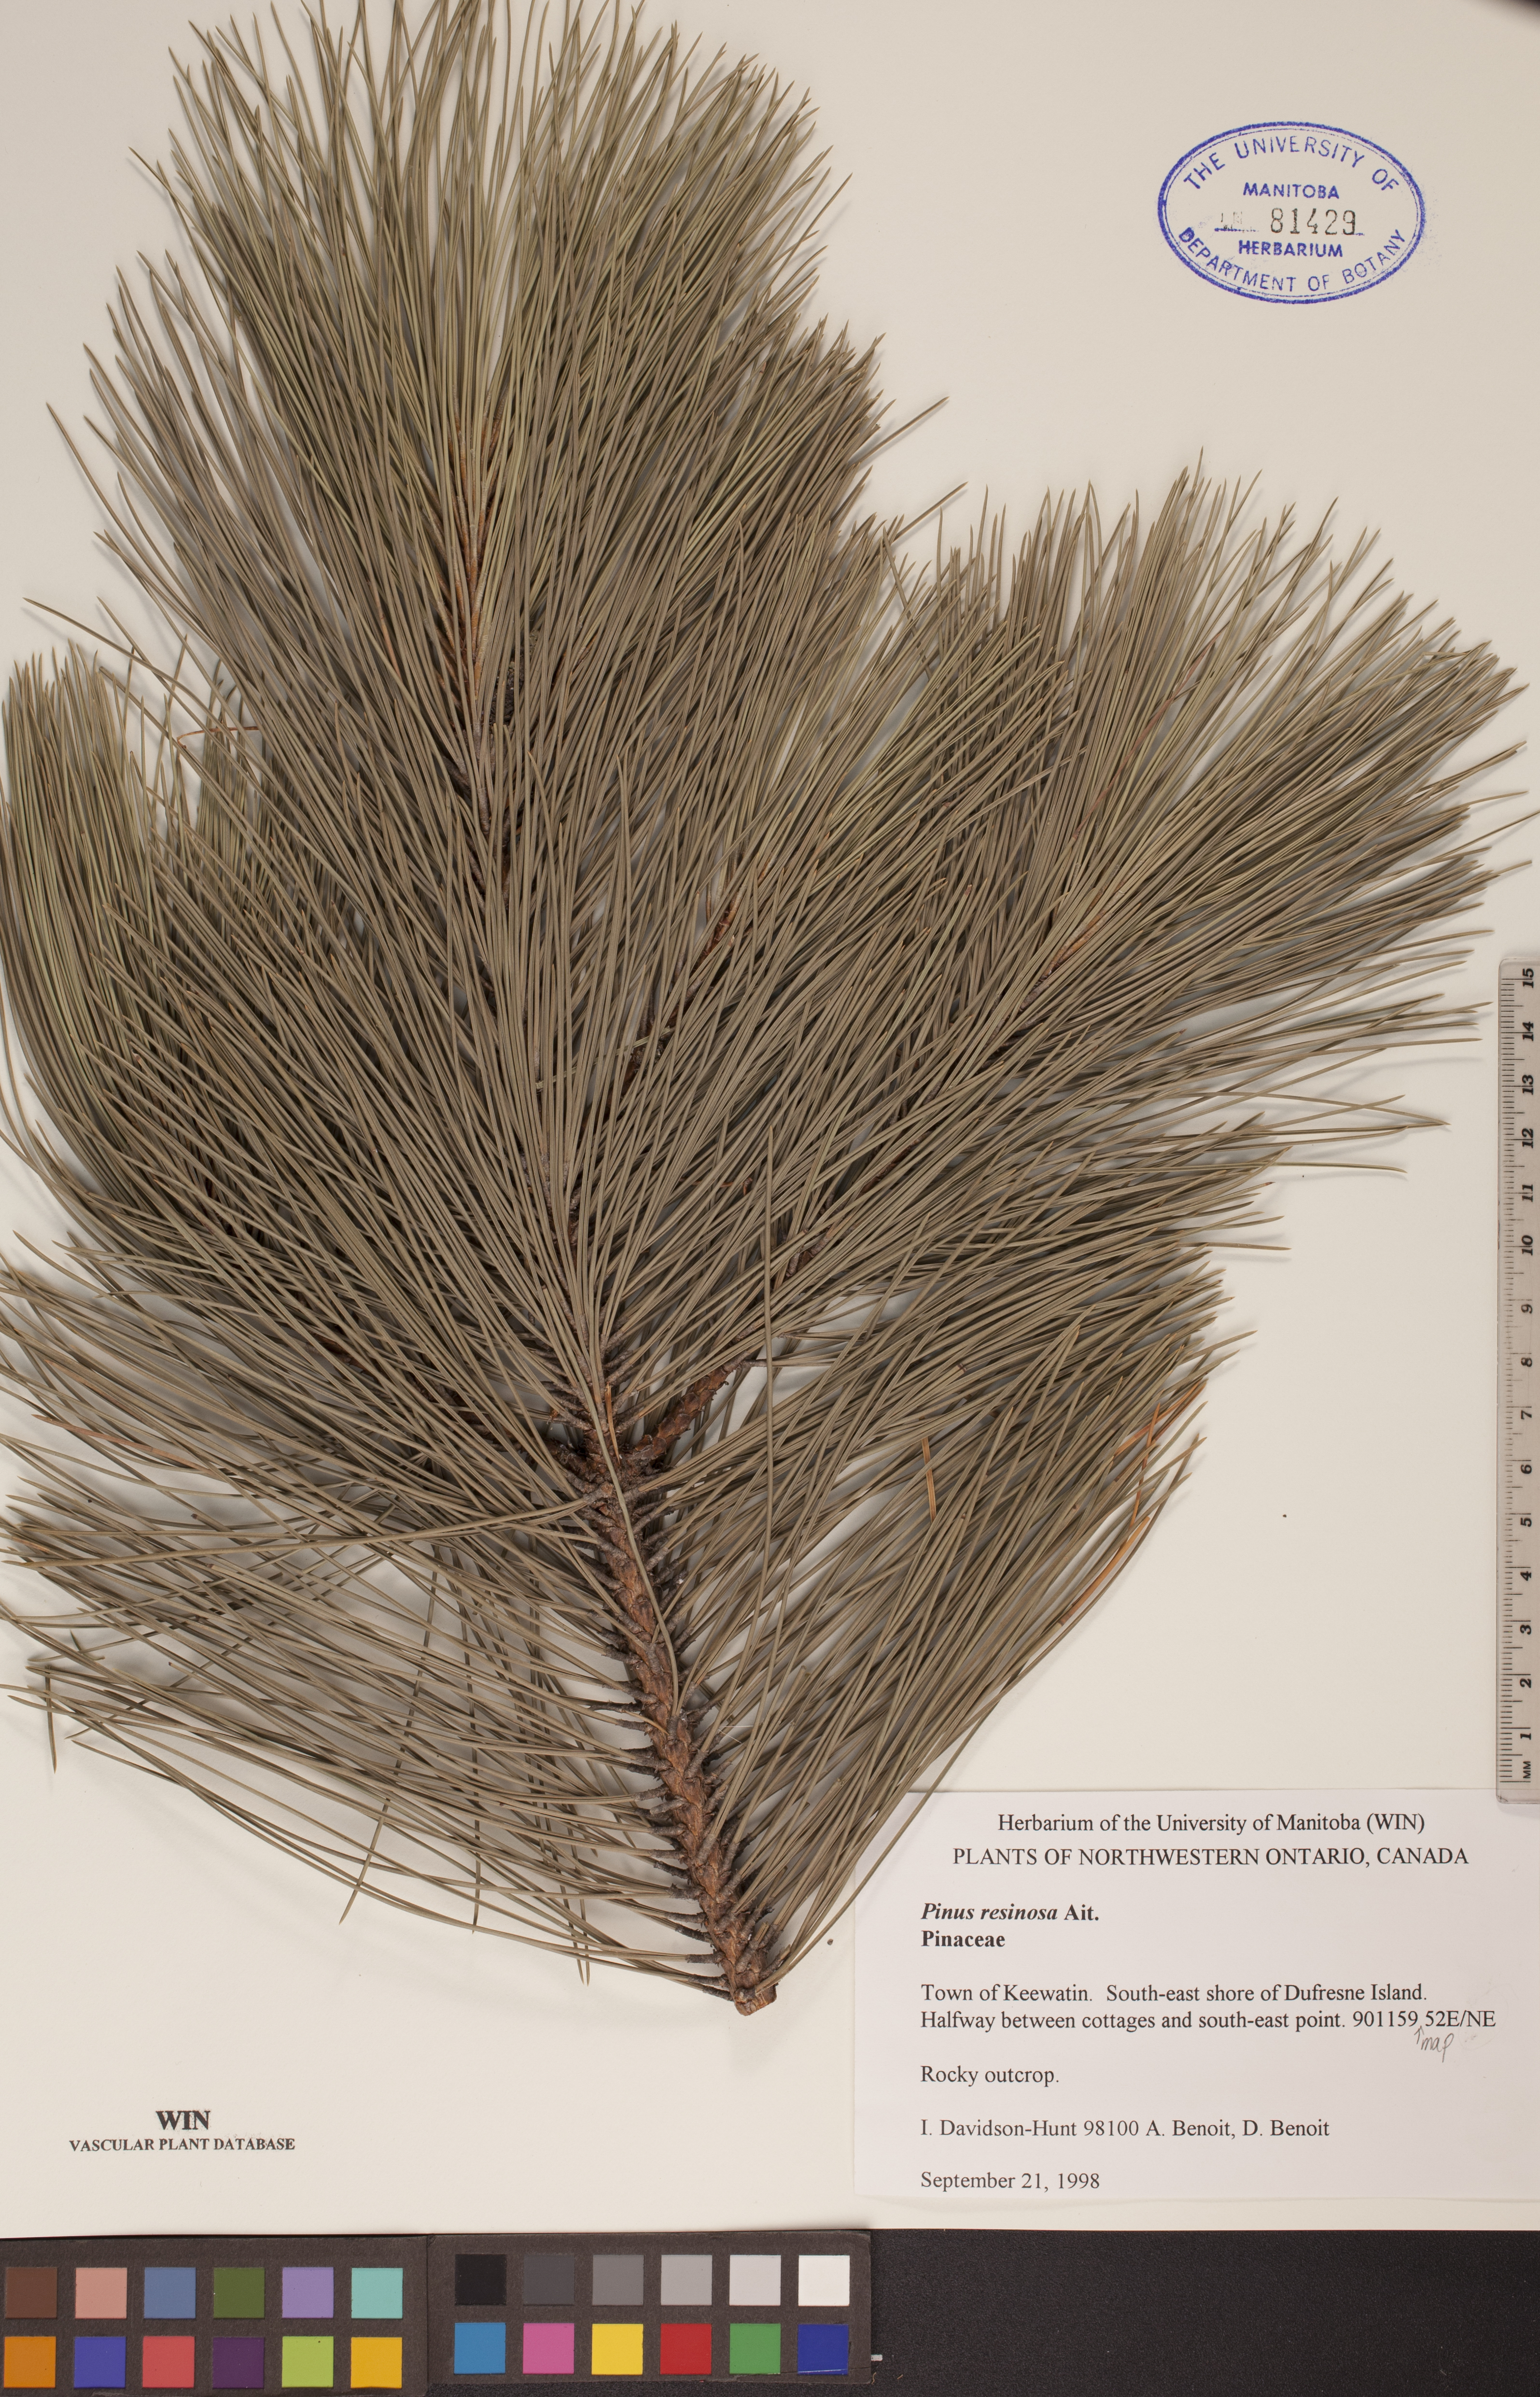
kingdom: Plantae
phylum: Tracheophyta
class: Pinopsida
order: Pinales
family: Pinaceae
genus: Pinus
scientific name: Pinus resinosa
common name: Norway pine
